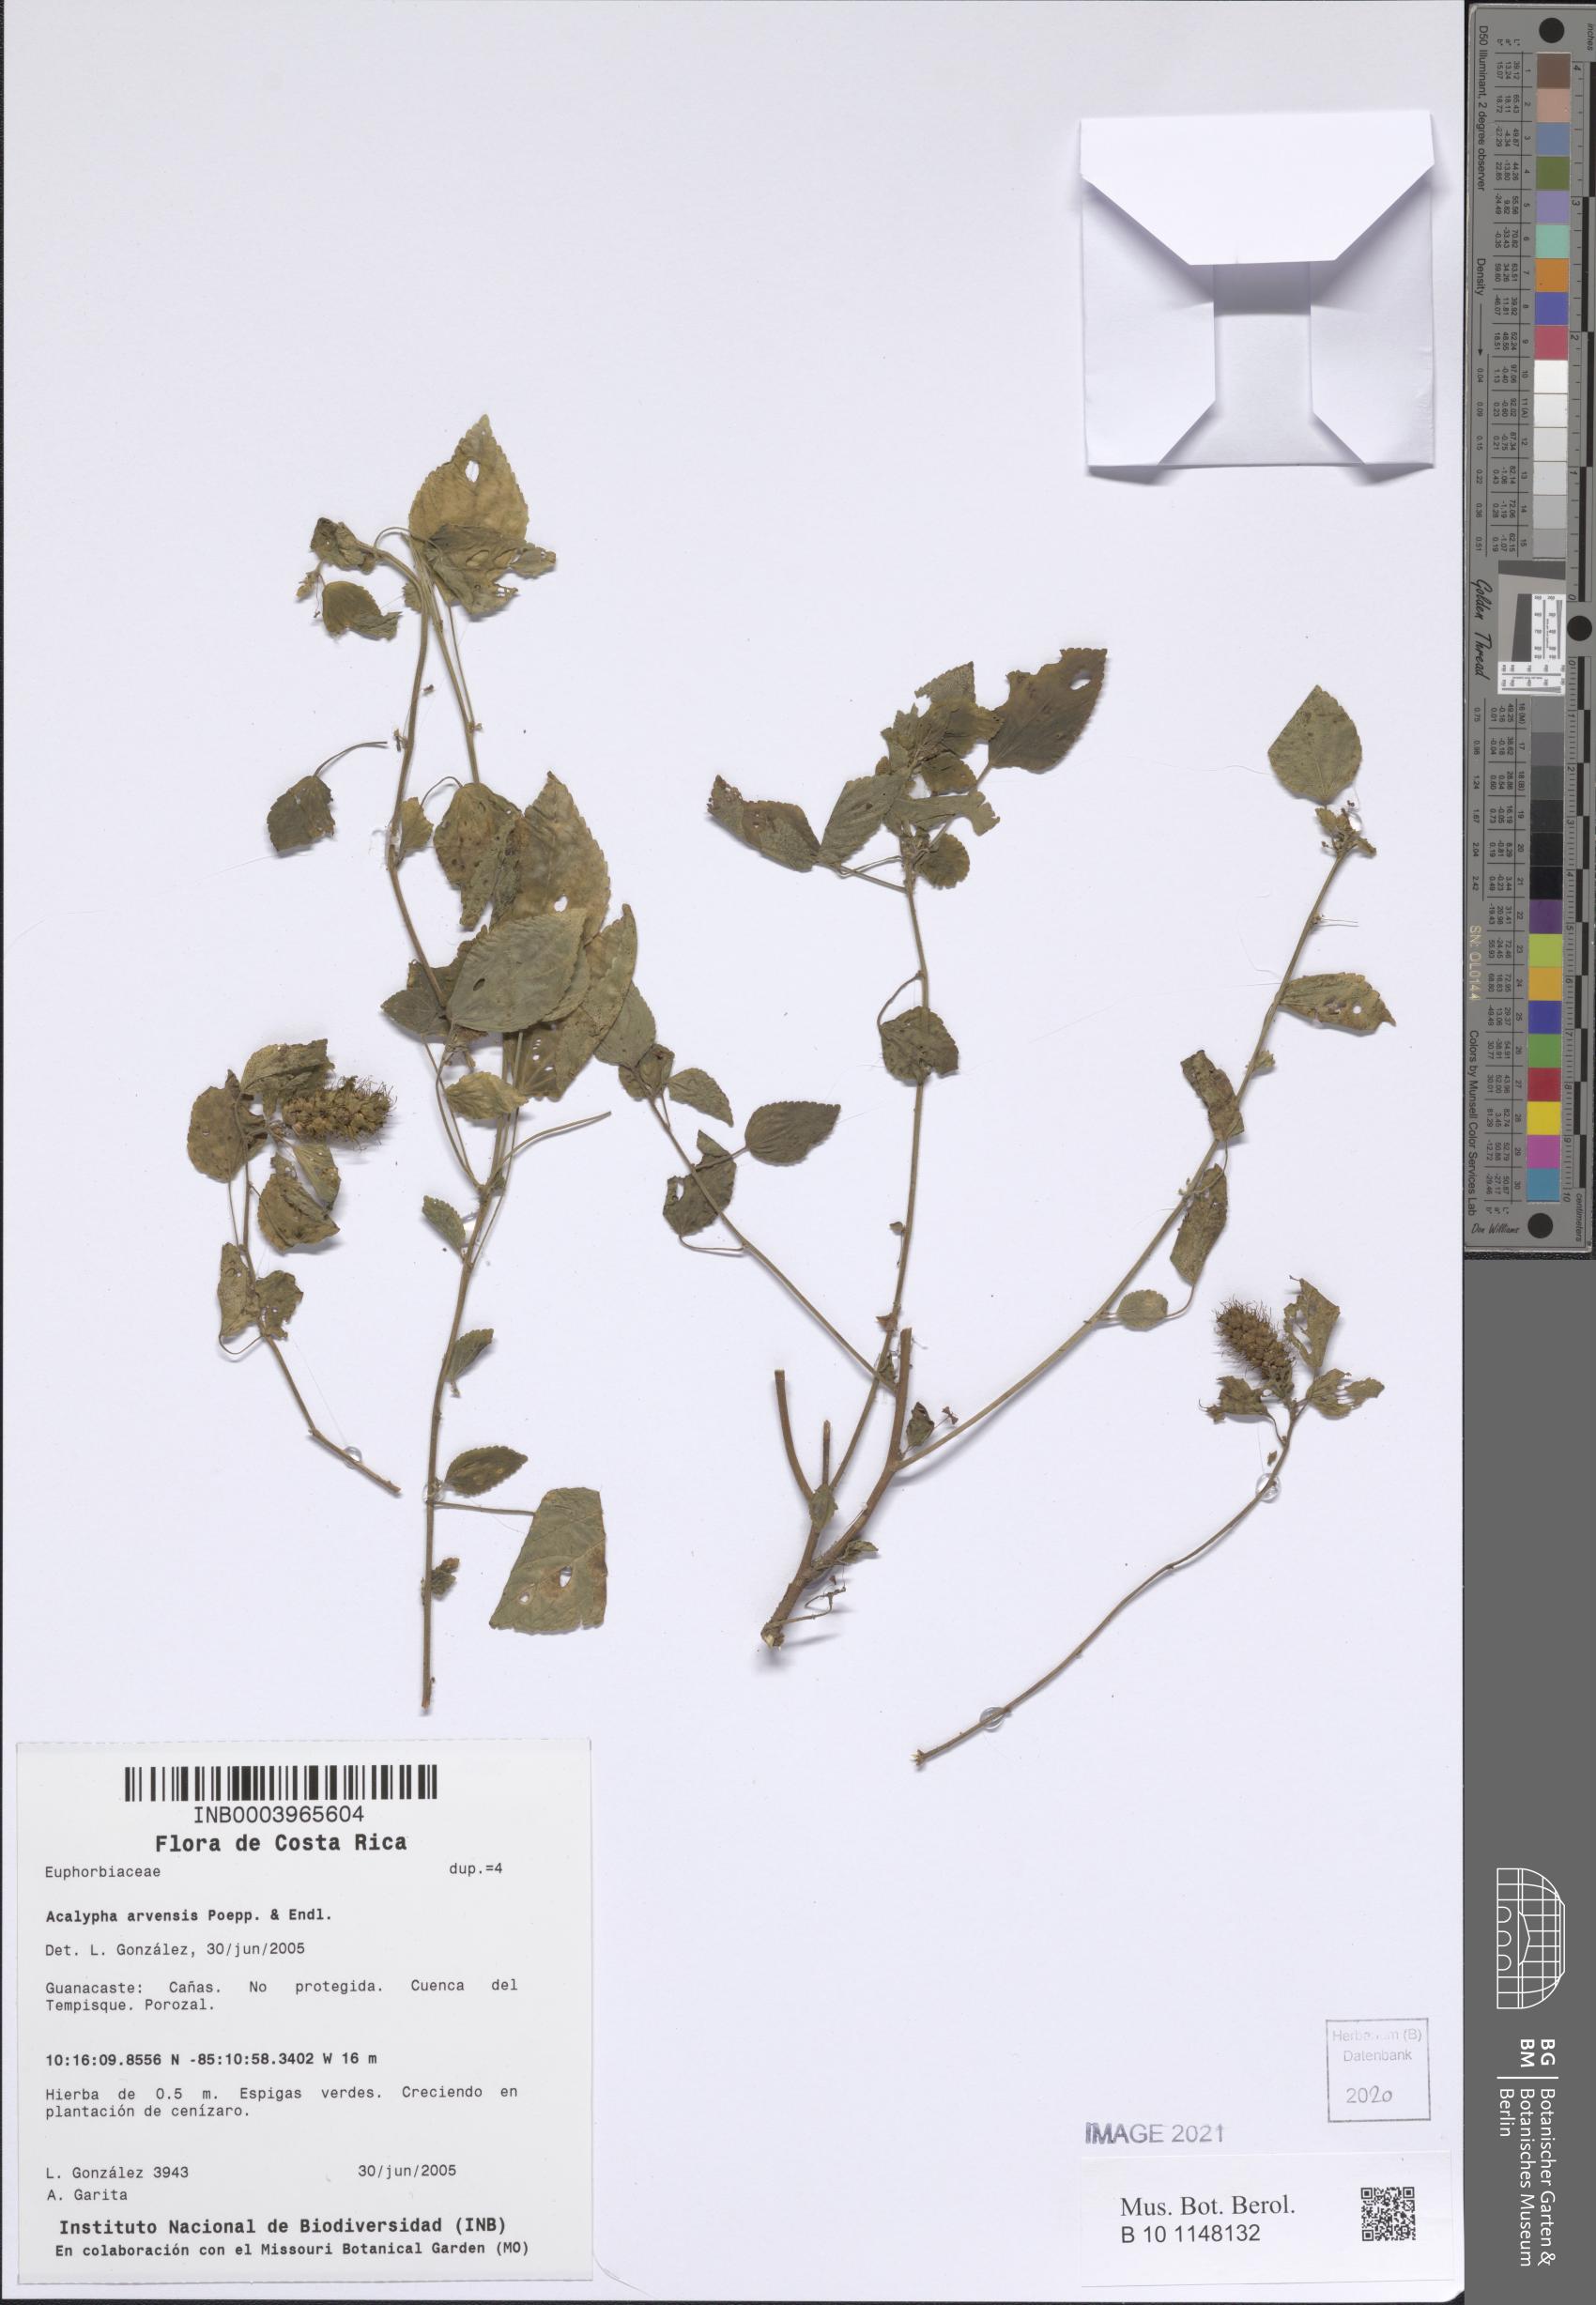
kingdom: Plantae
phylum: Tracheophyta
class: Magnoliopsida
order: Malpighiales
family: Euphorbiaceae
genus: Acalypha
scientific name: Acalypha arvensis
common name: Field copperleaf
